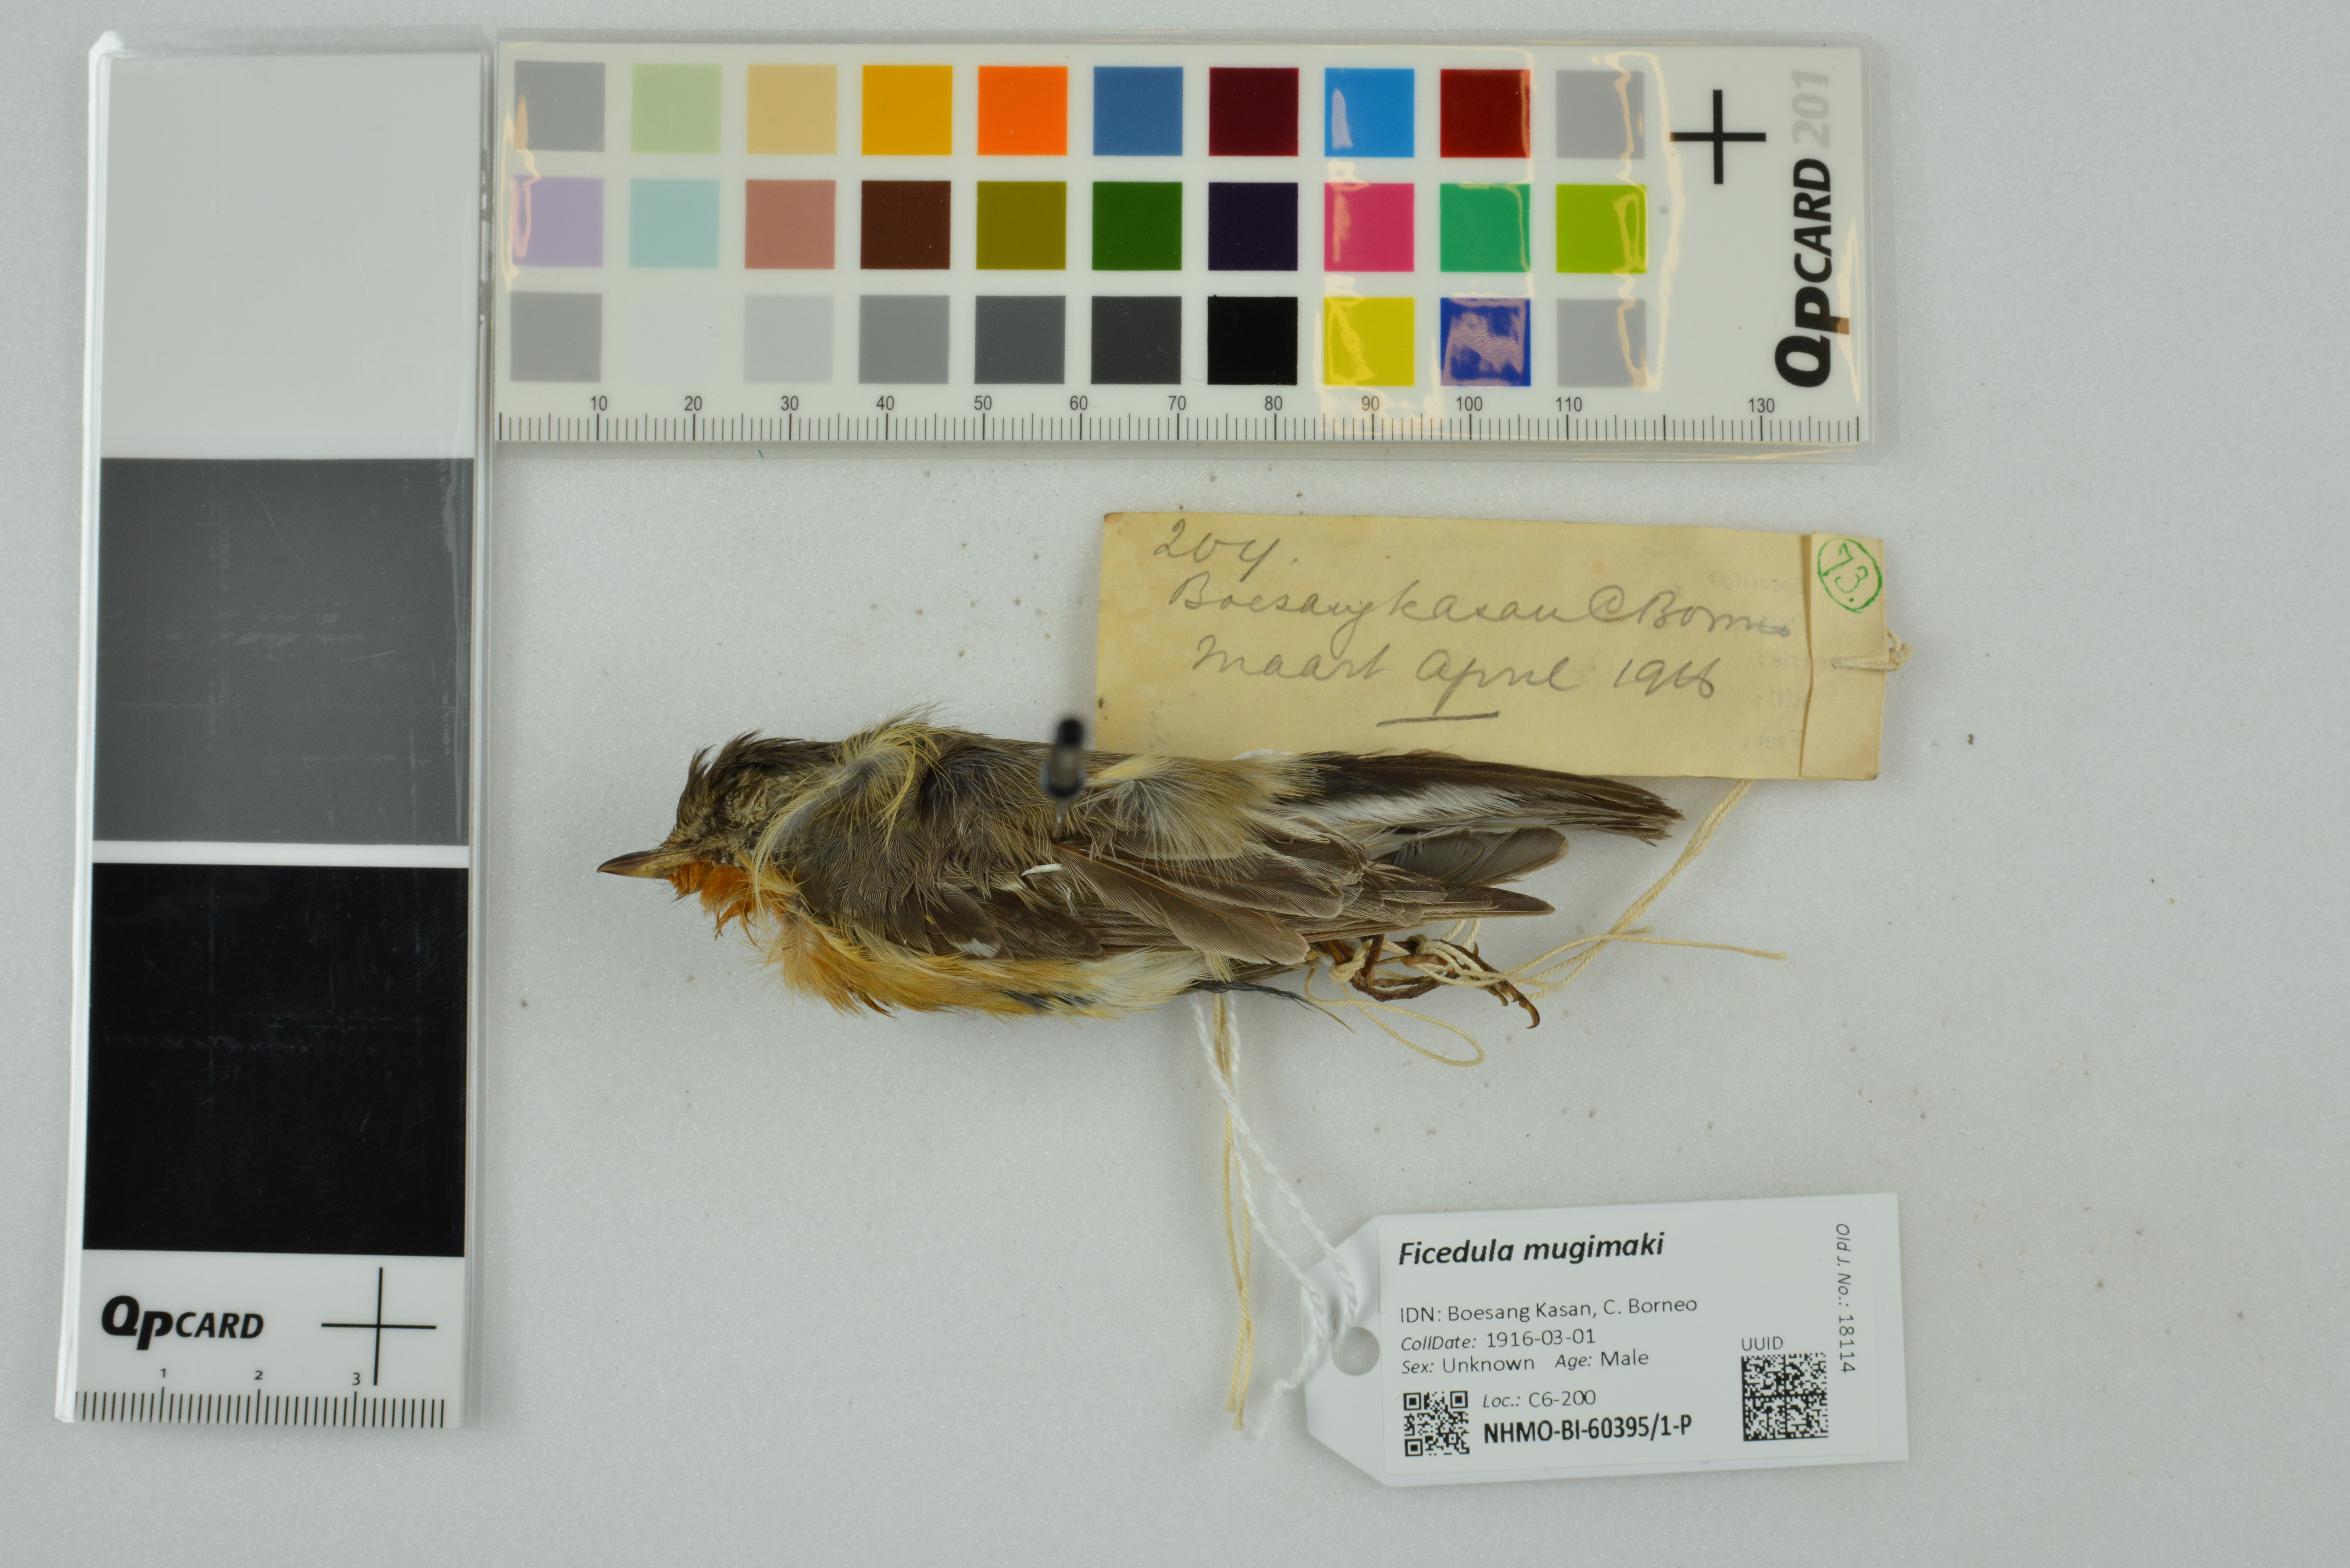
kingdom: Animalia
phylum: Chordata
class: Aves
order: Passeriformes
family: Muscicapidae
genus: Ficedula
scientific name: Ficedula mugimaki
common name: Mugimaki flycatcher
